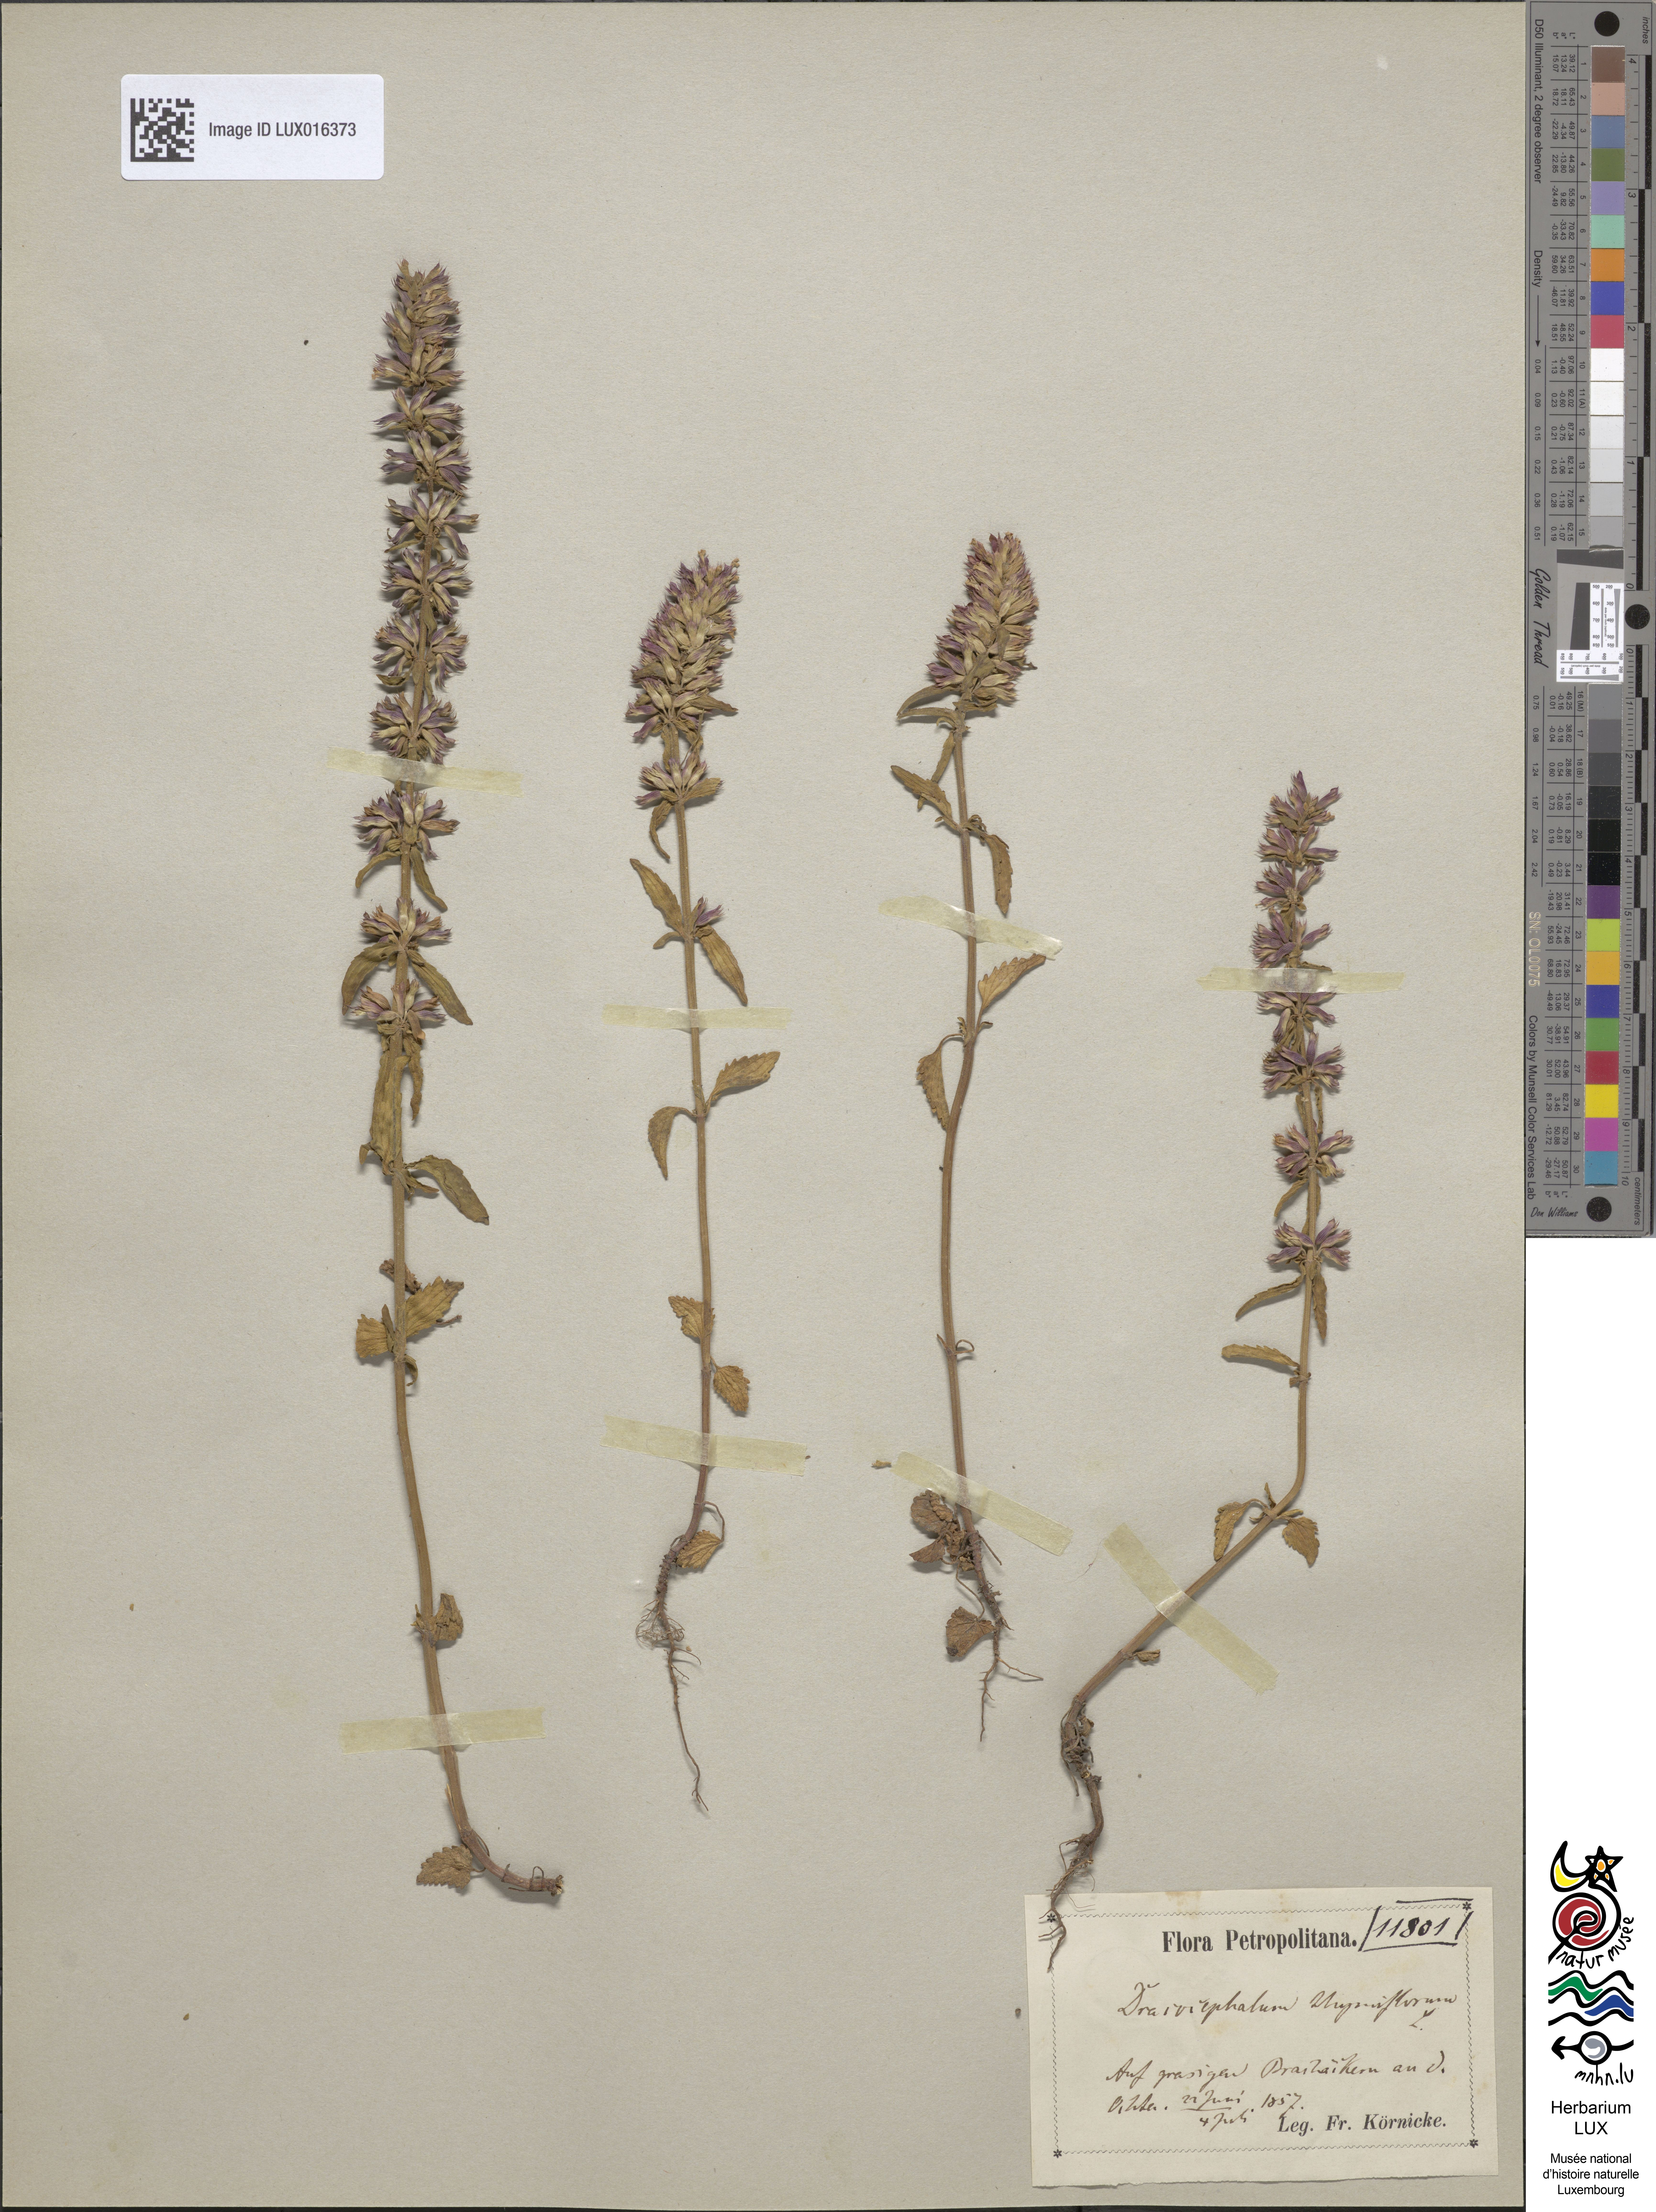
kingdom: Plantae
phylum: Tracheophyta
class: Magnoliopsida
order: Lamiales
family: Lamiaceae
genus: Dracocephalum
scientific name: Dracocephalum thymiflorum
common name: Thymeleaf dragonhead
